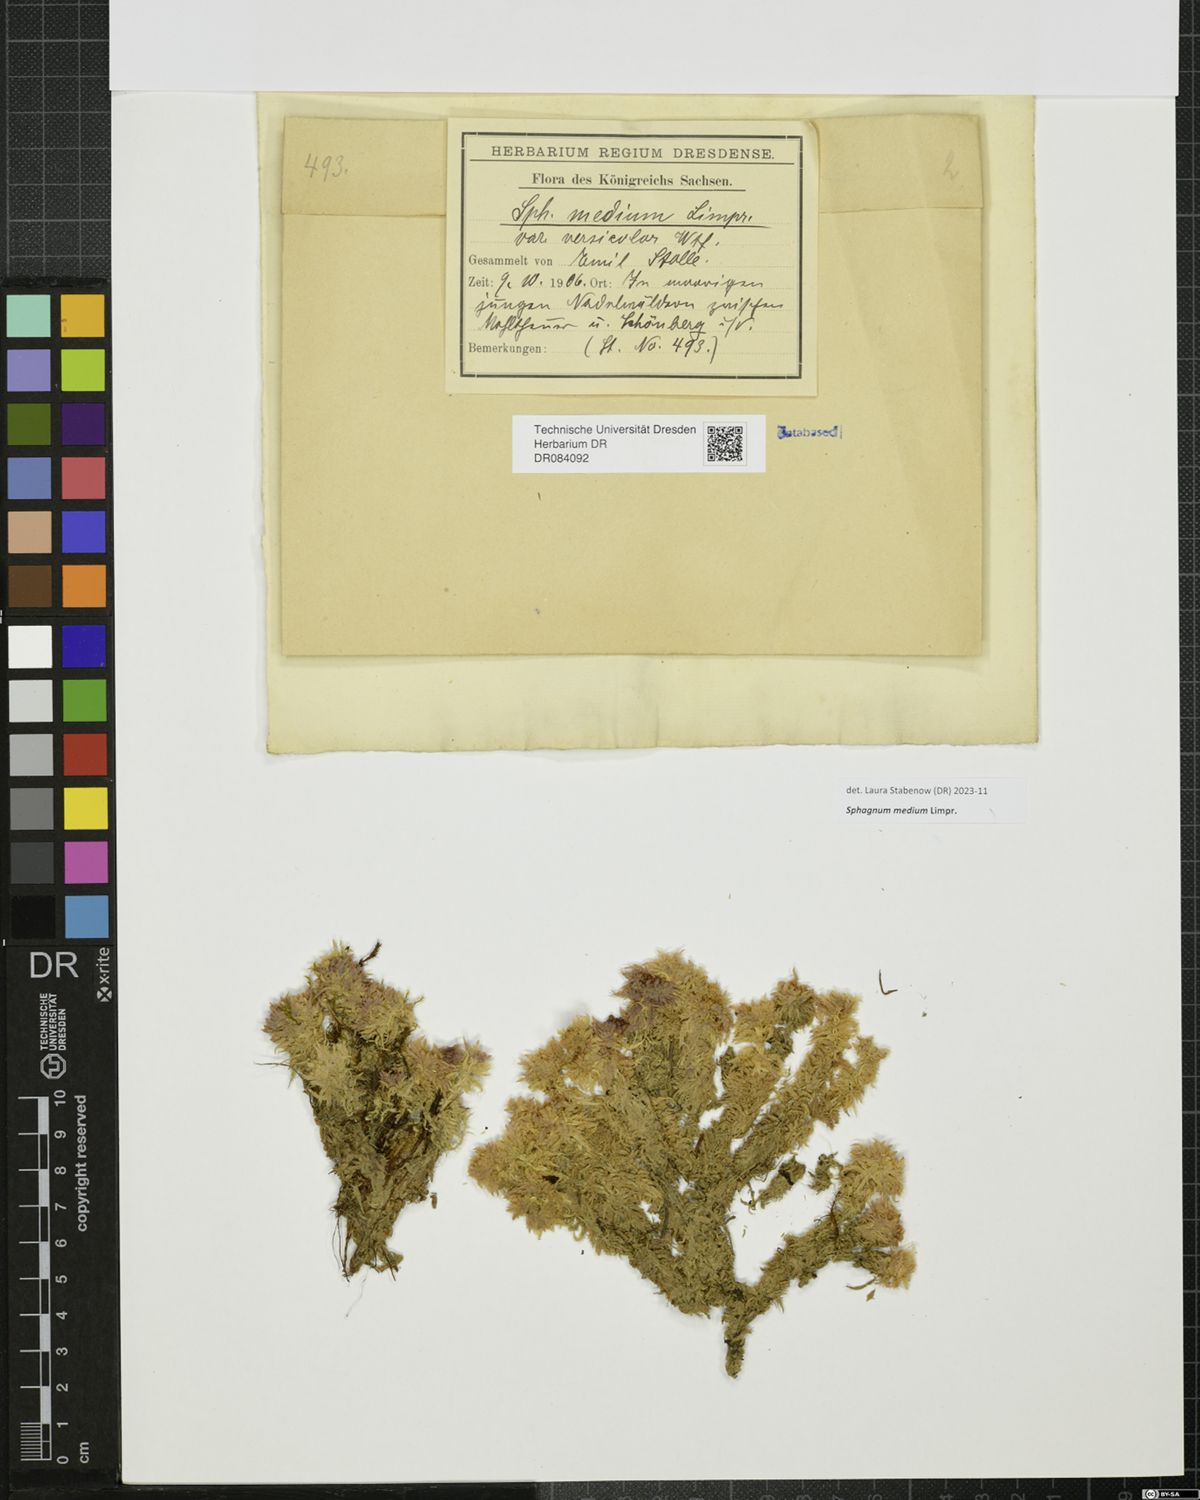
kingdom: Plantae
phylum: Bryophyta
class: Sphagnopsida
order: Sphagnales
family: Sphagnaceae
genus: Sphagnum
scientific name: Sphagnum medium
